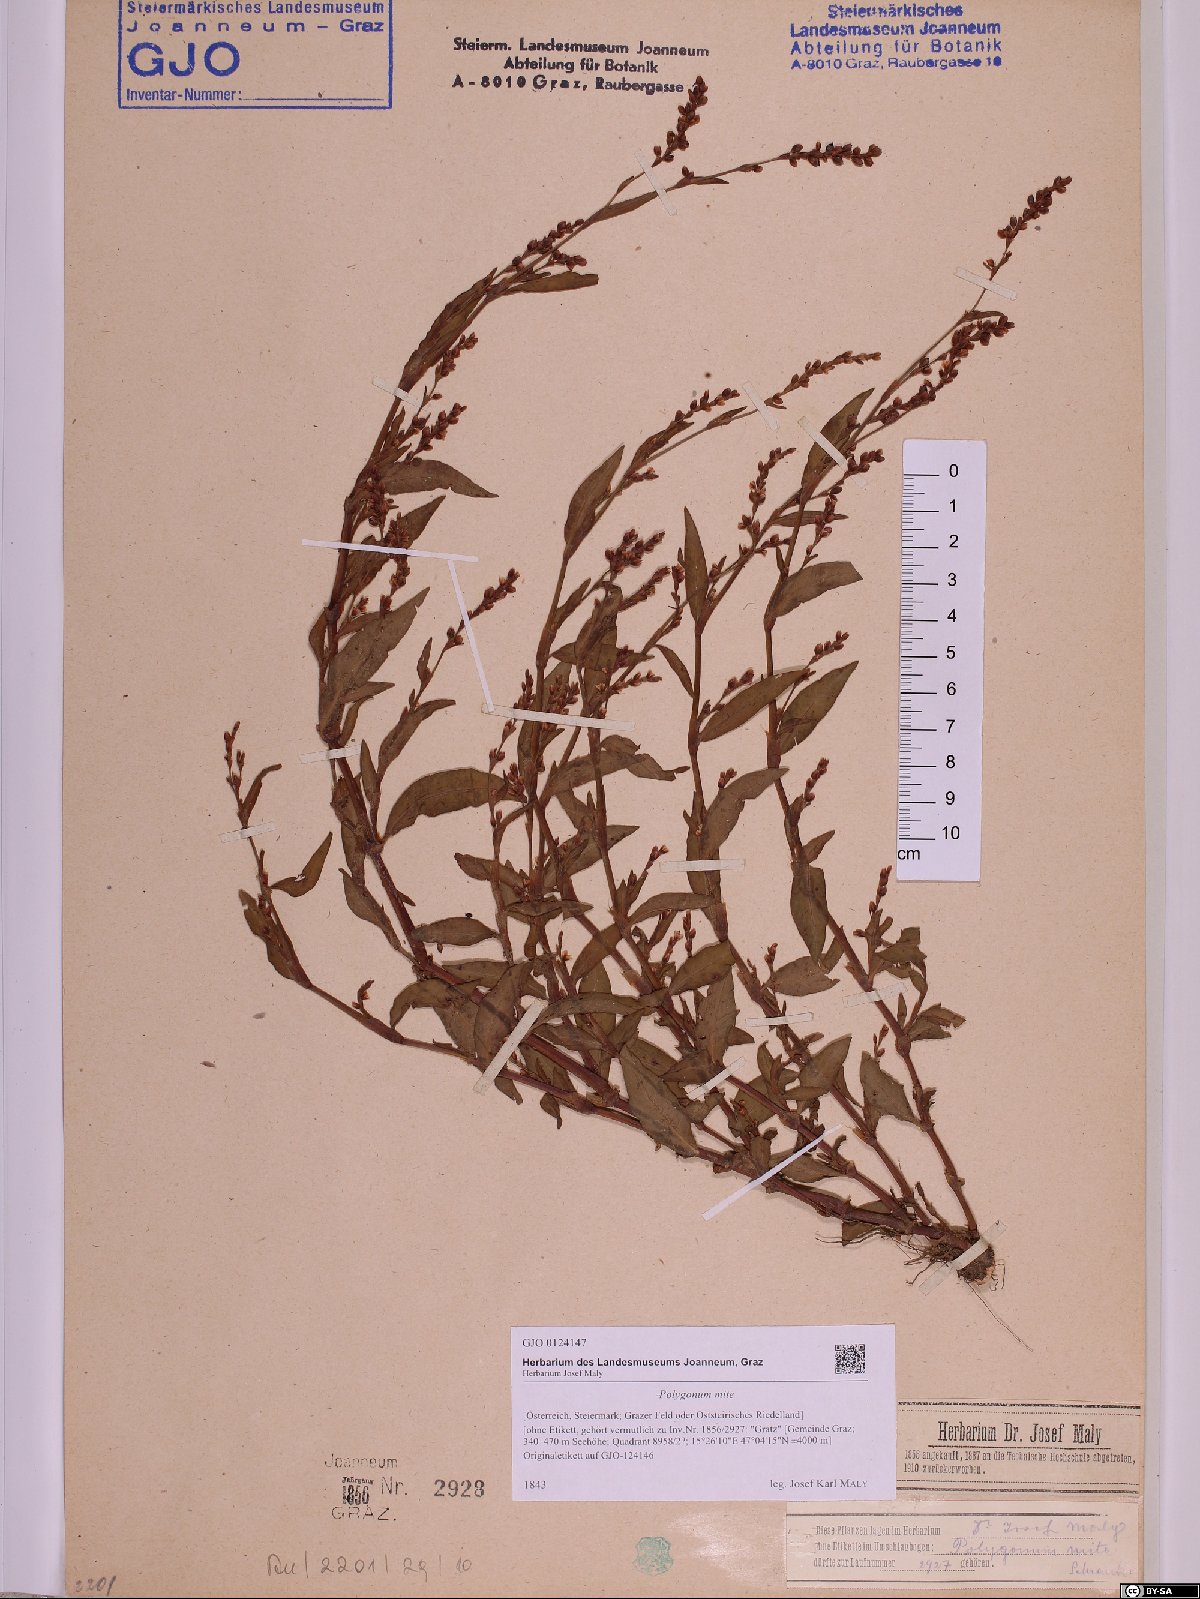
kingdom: Plantae
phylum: Tracheophyta
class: Magnoliopsida
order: Caryophyllales
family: Polygonaceae
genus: Persicaria
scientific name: Persicaria mitis
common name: Tasteless water-pepper
